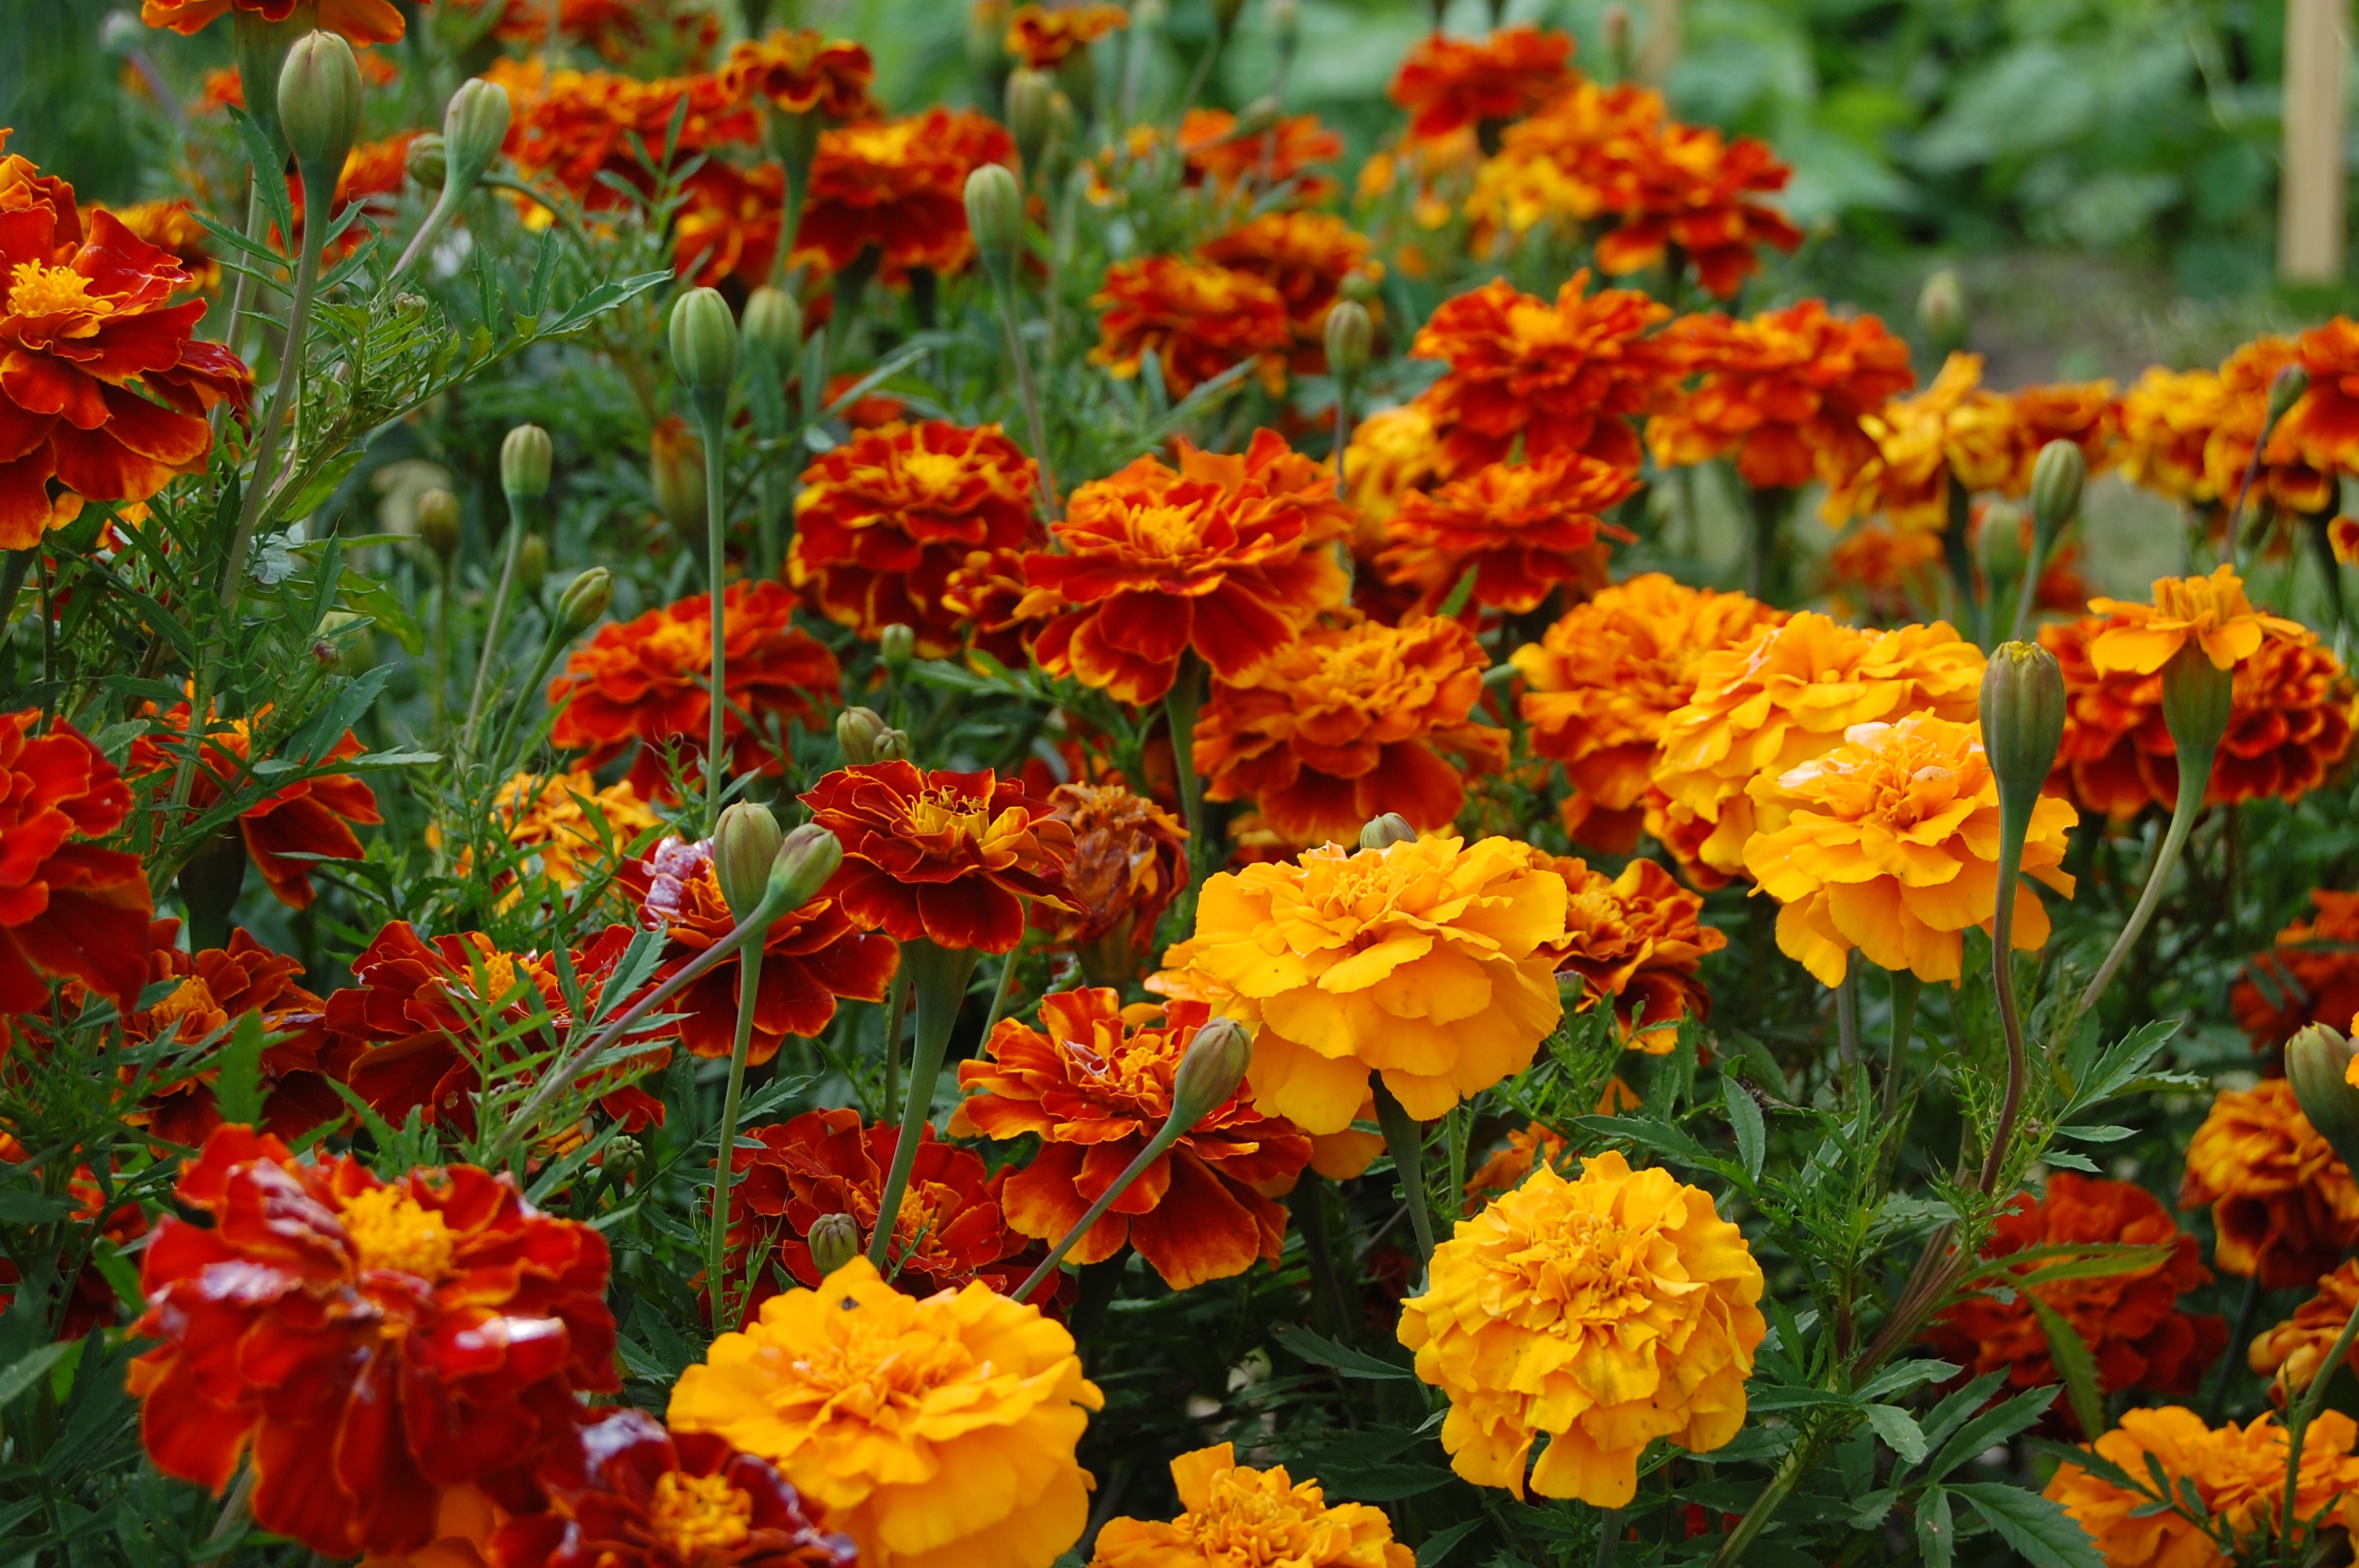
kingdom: Plantae
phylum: Tracheophyta
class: Magnoliopsida
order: Asterales
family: Asteraceae
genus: Tagetes
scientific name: Tagetes erecta
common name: African marigold
